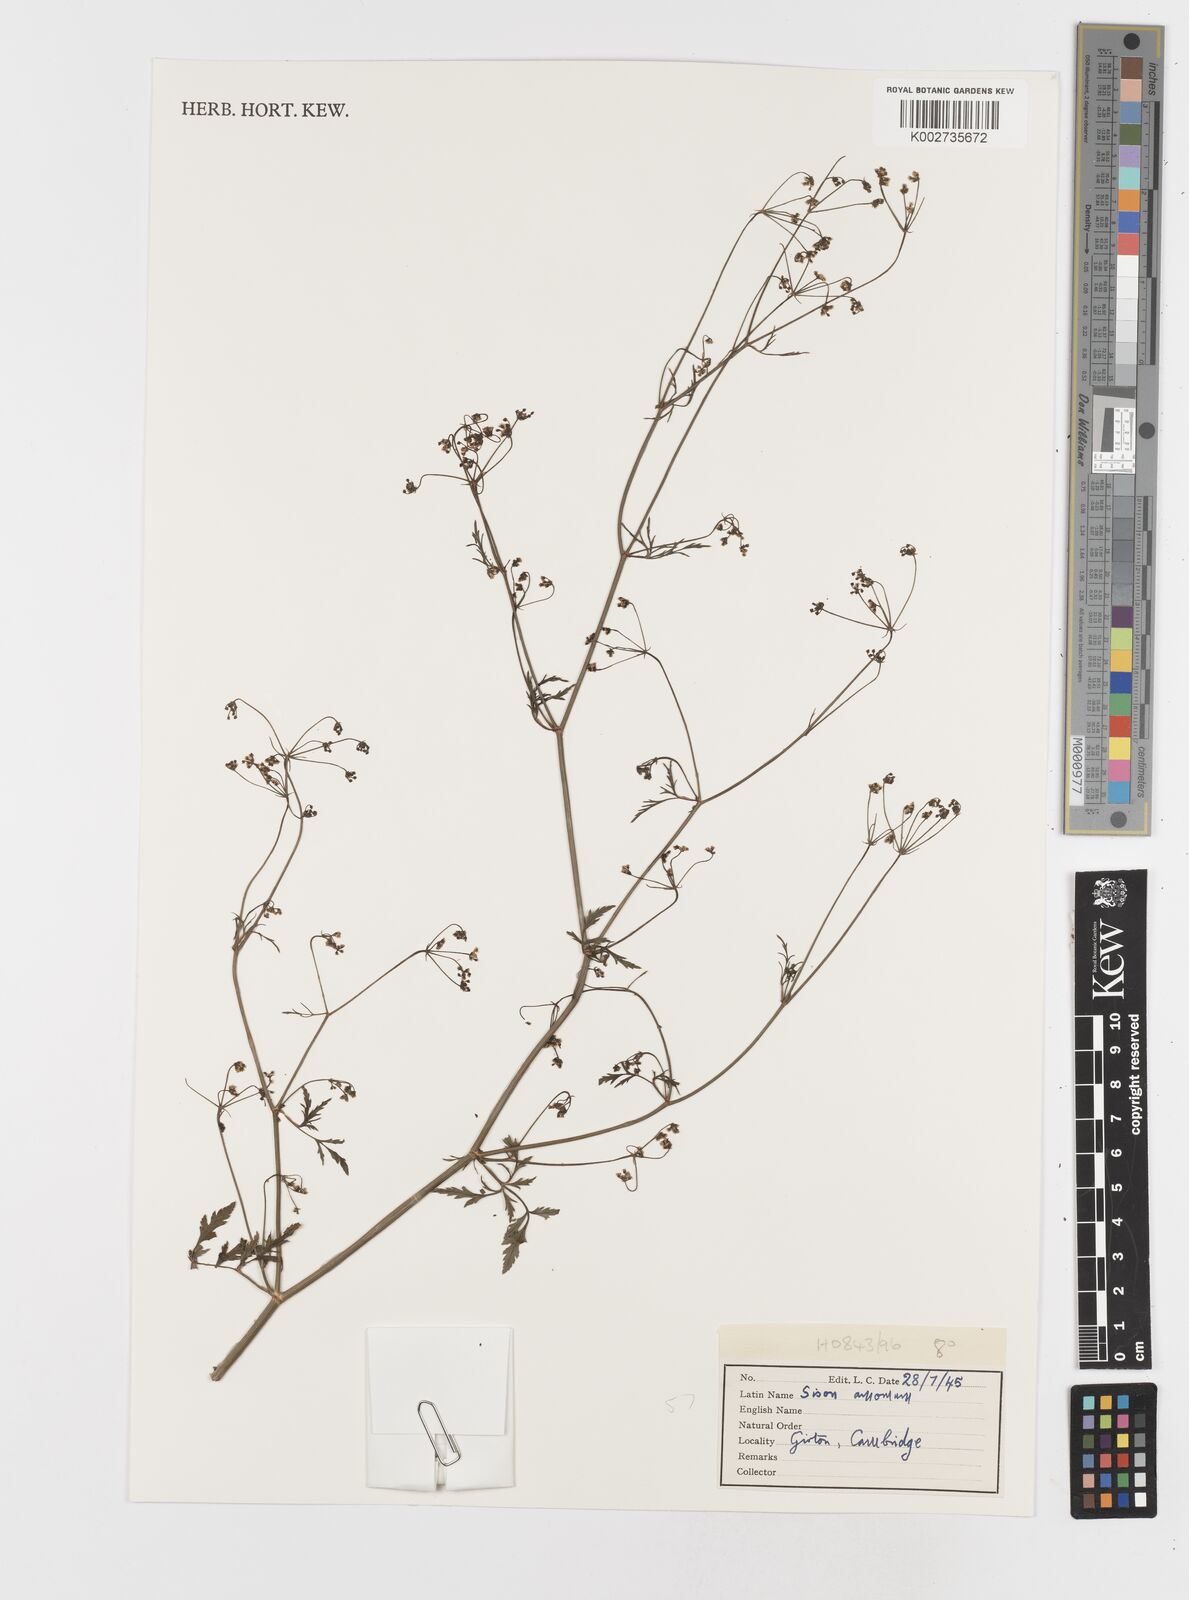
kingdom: Plantae
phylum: Tracheophyta
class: Magnoliopsida
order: Apiales
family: Apiaceae
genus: Sison
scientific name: Sison amomum
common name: Stone-parsley
